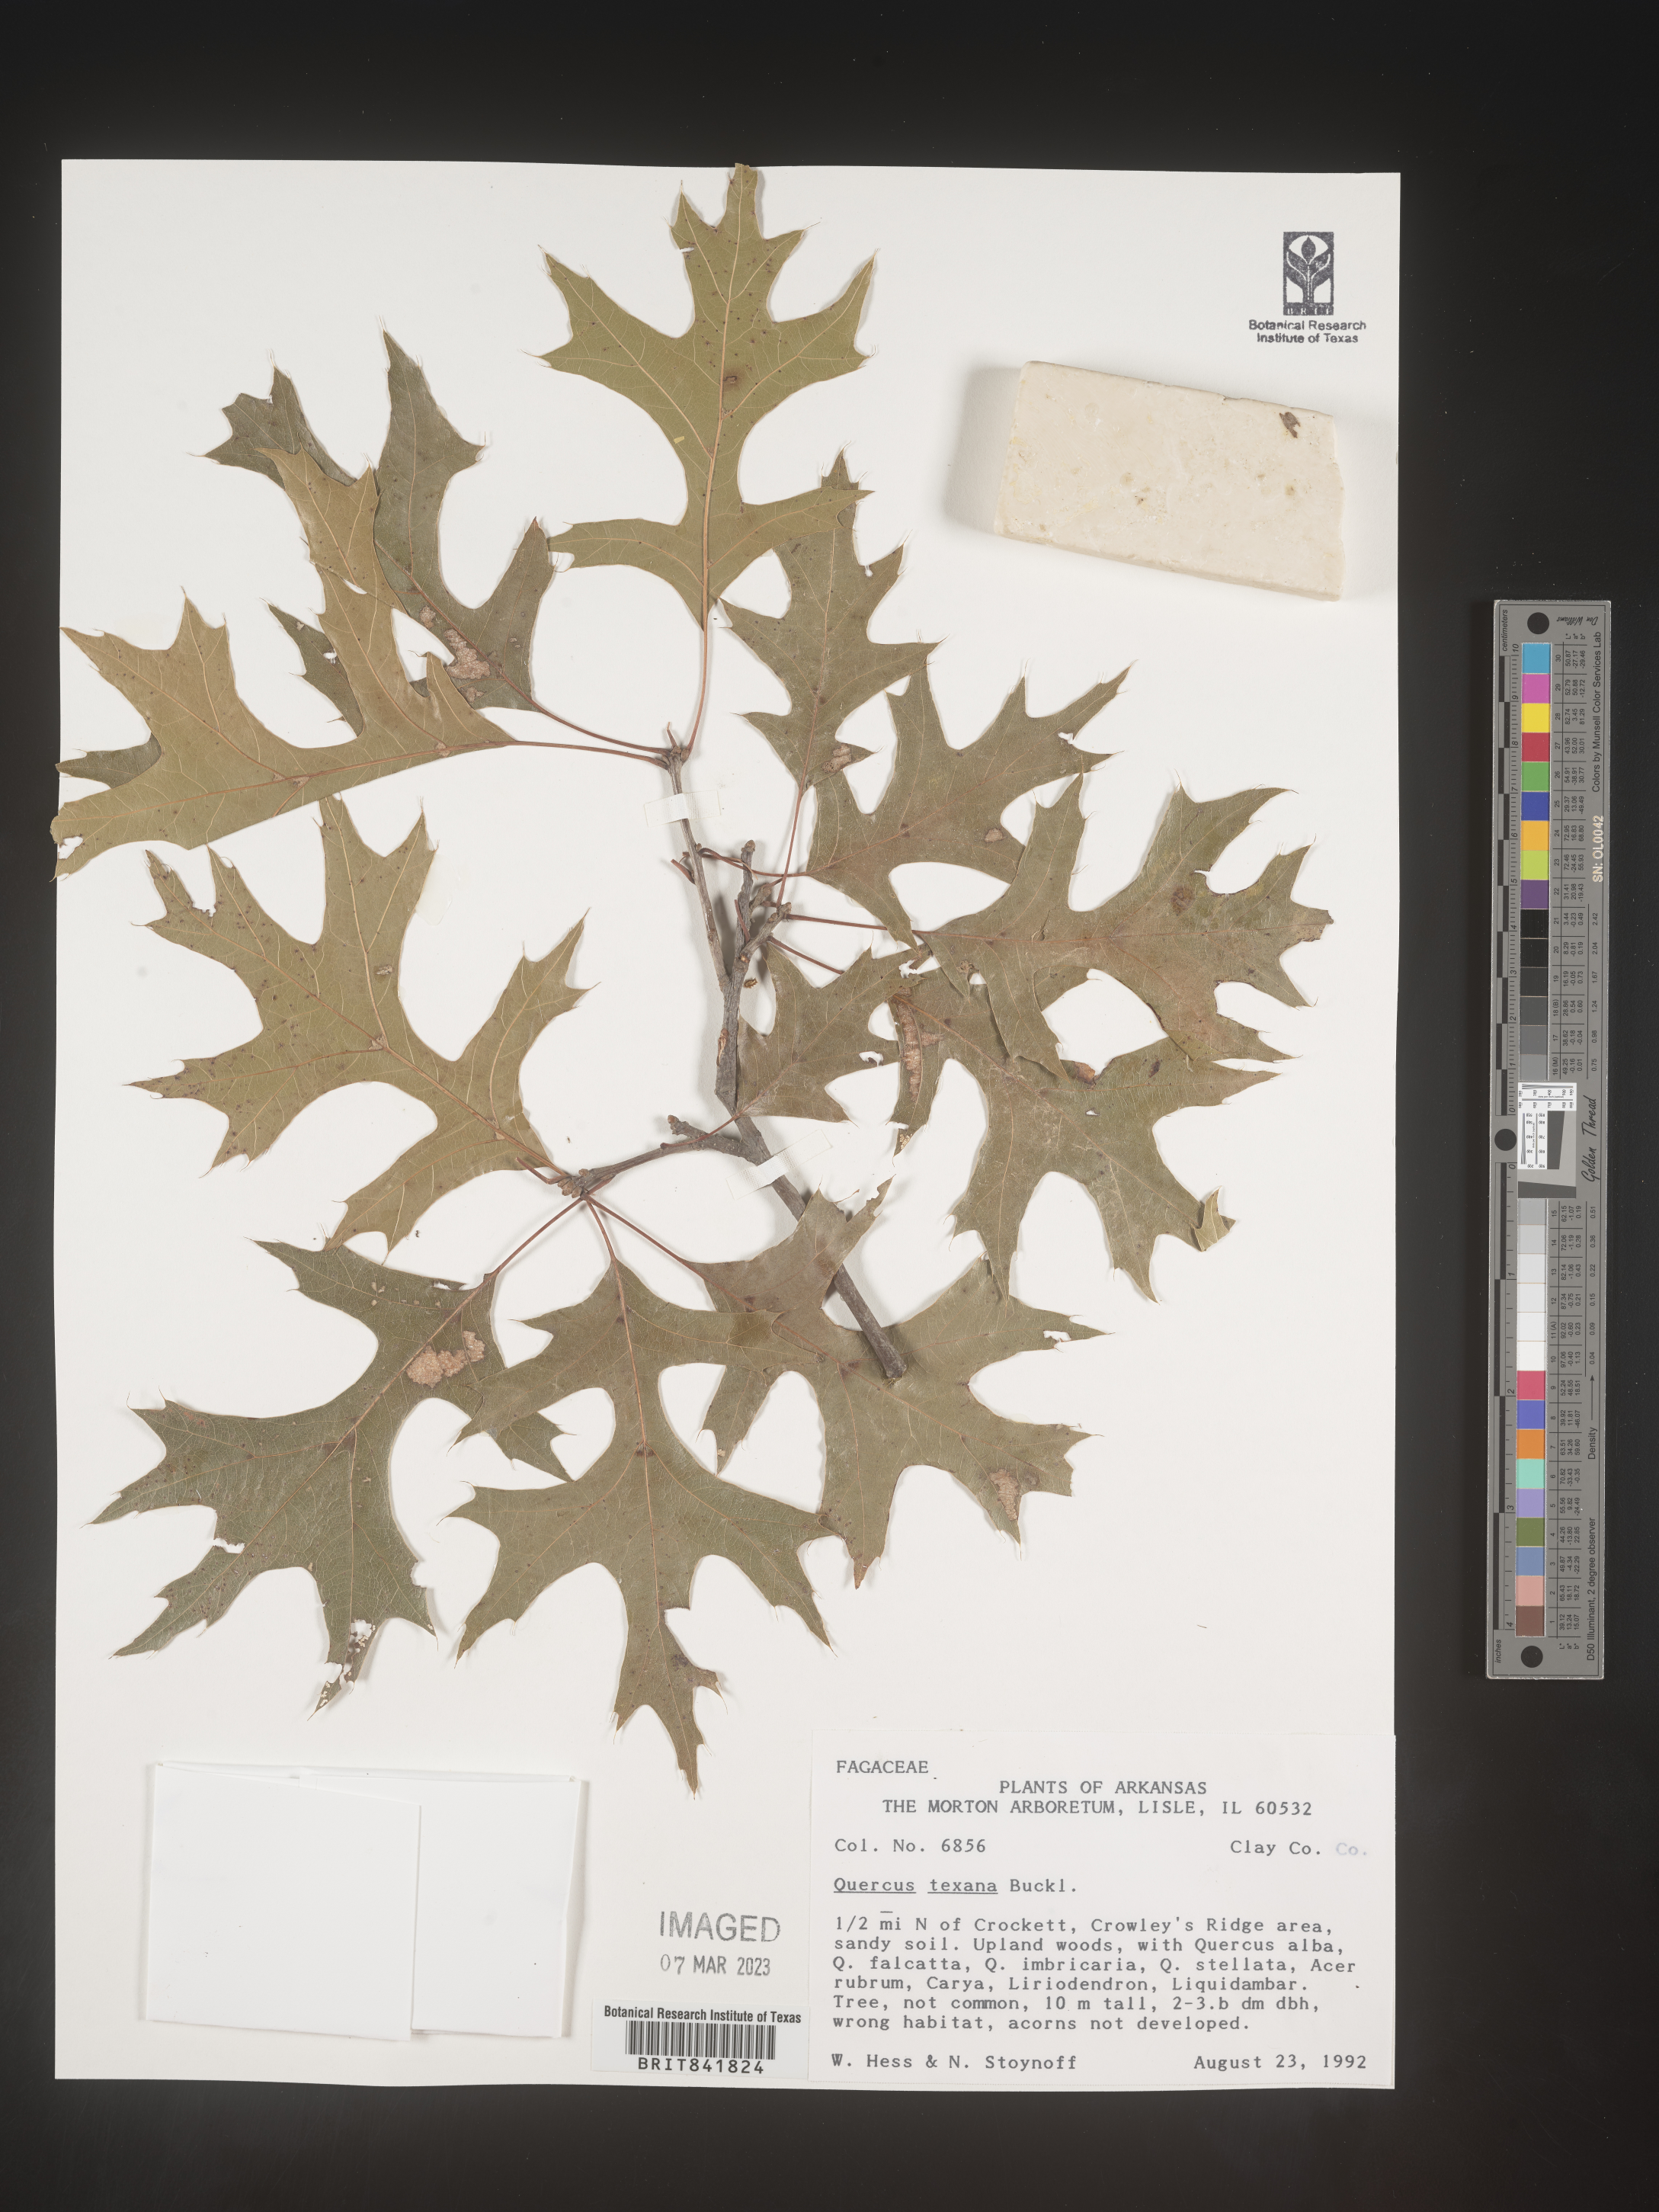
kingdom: Plantae
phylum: Tracheophyta
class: Magnoliopsida
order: Fagales
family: Fagaceae
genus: Quercus
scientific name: Quercus texana
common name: Nuttall oak
